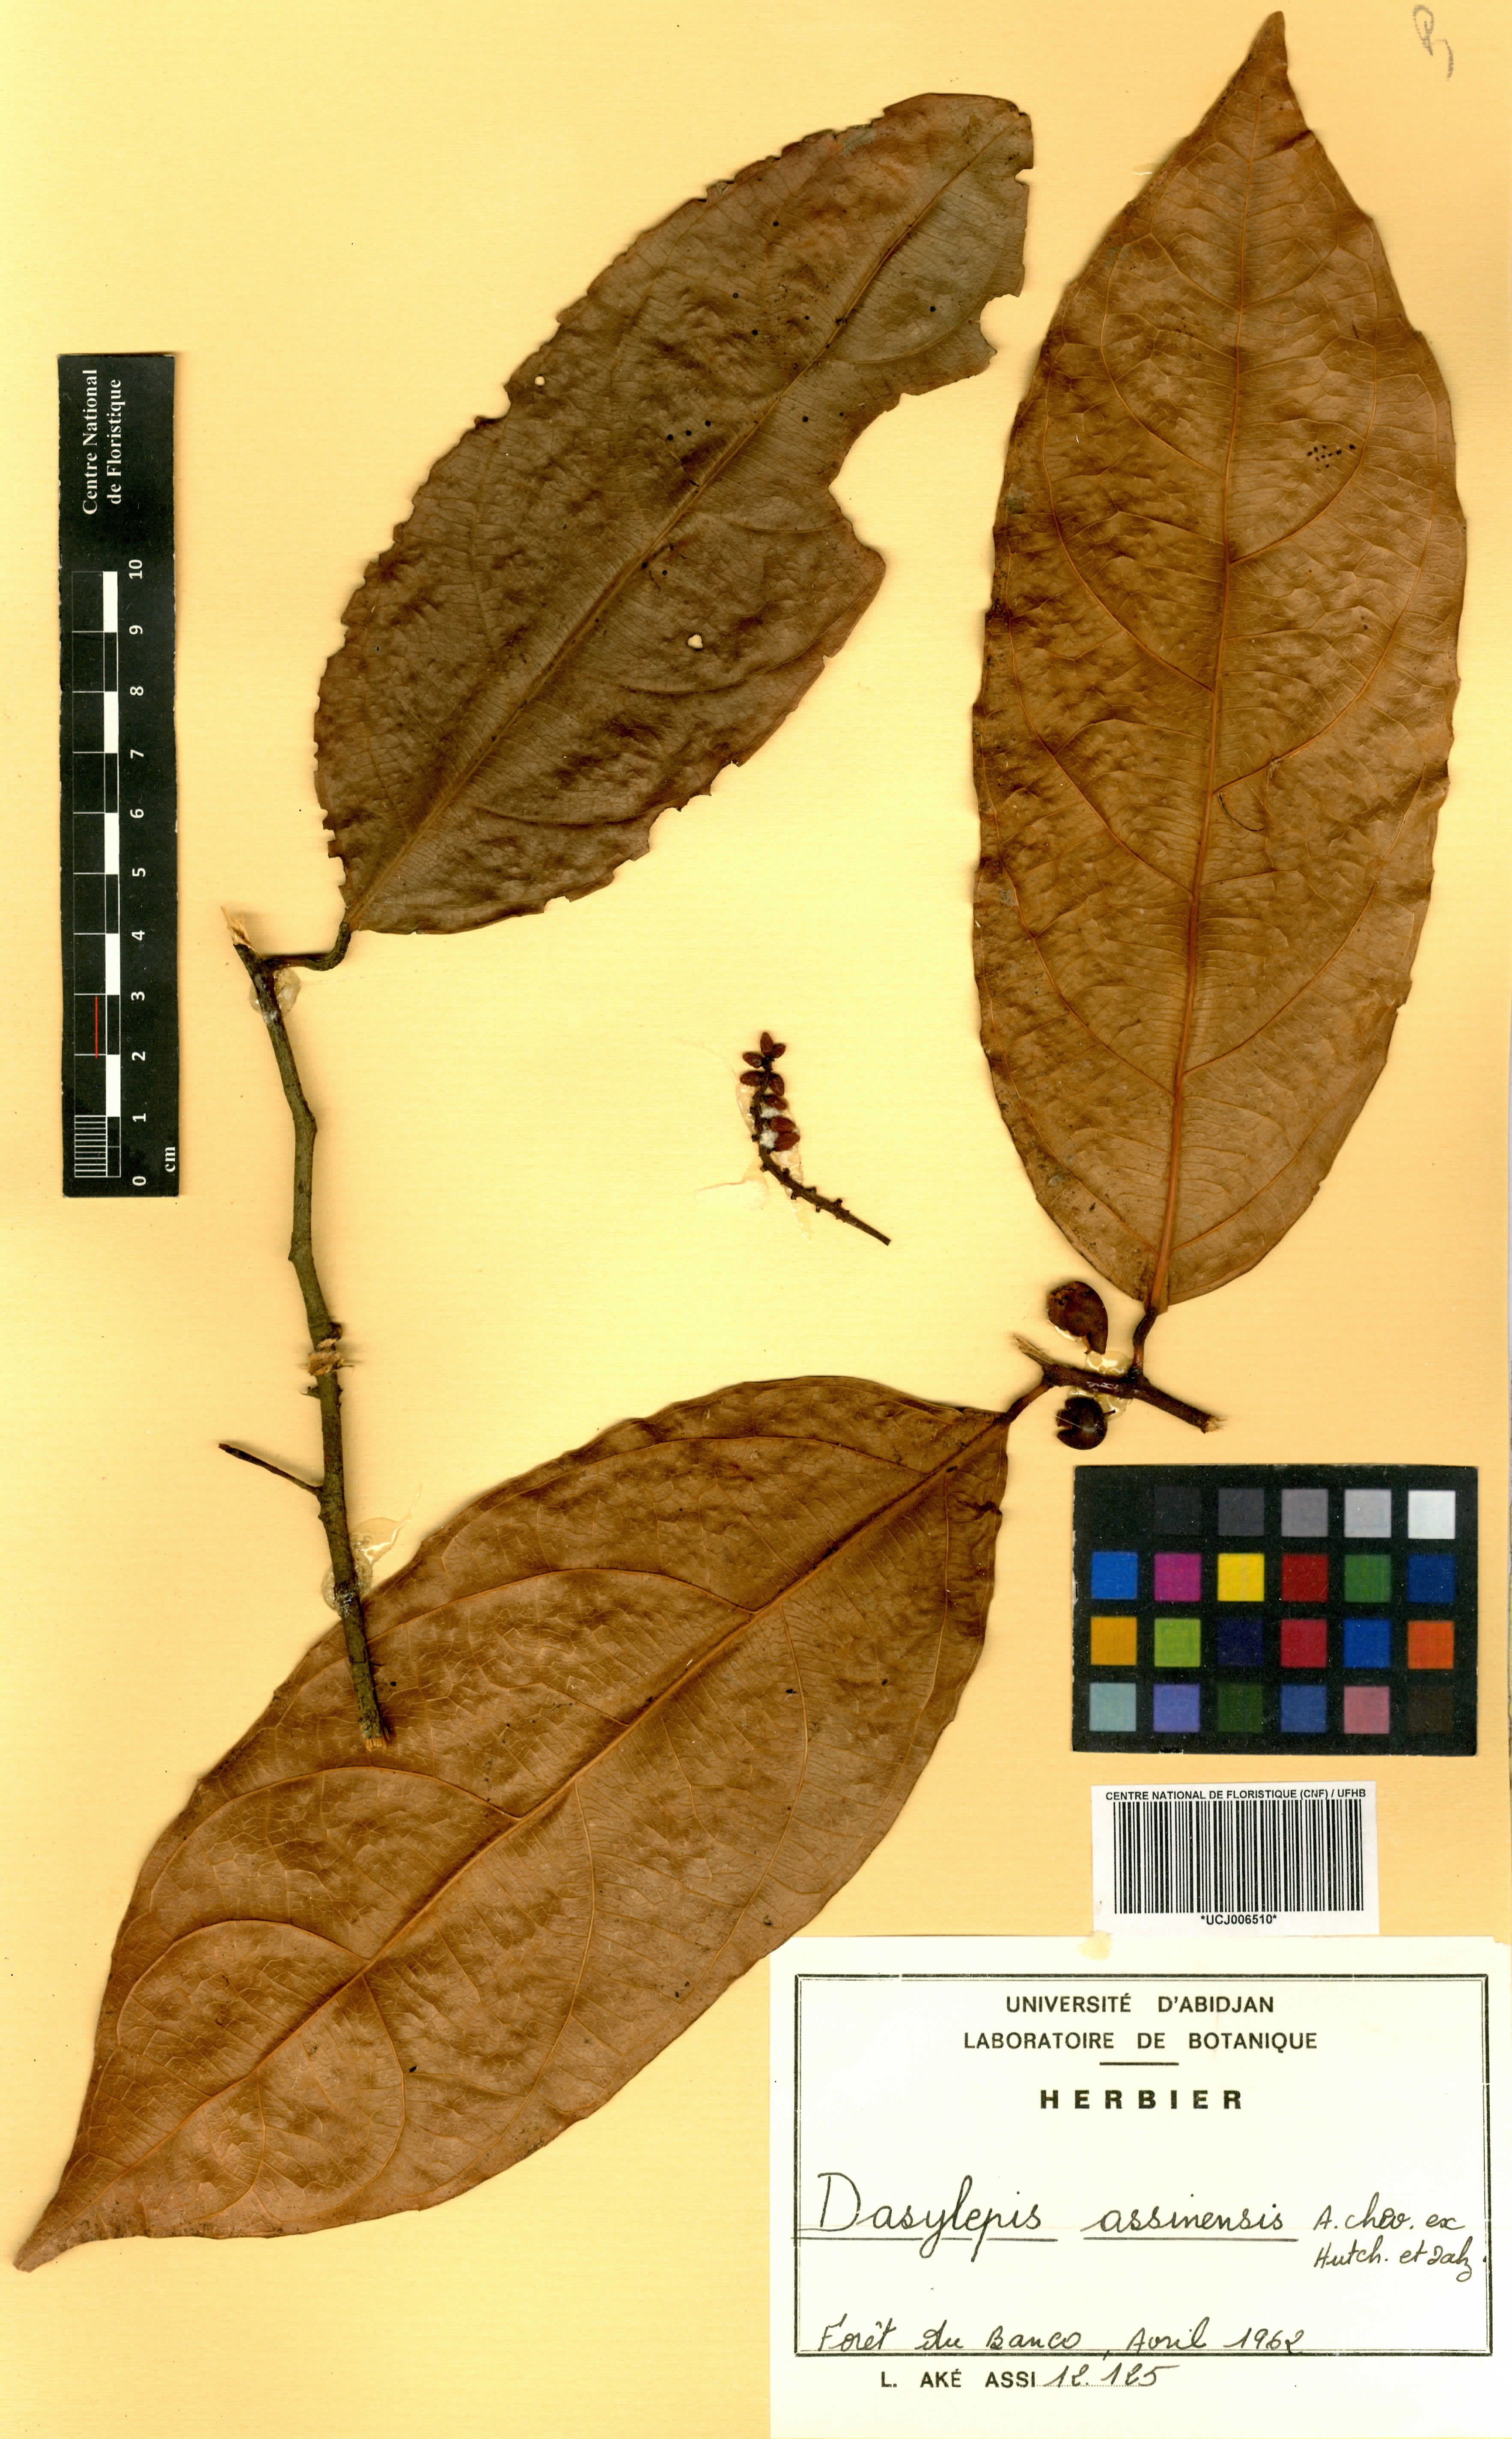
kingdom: Plantae
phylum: Tracheophyta
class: Magnoliopsida
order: Malpighiales
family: Achariaceae
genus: Dasylepis
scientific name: Dasylepis racemosa
